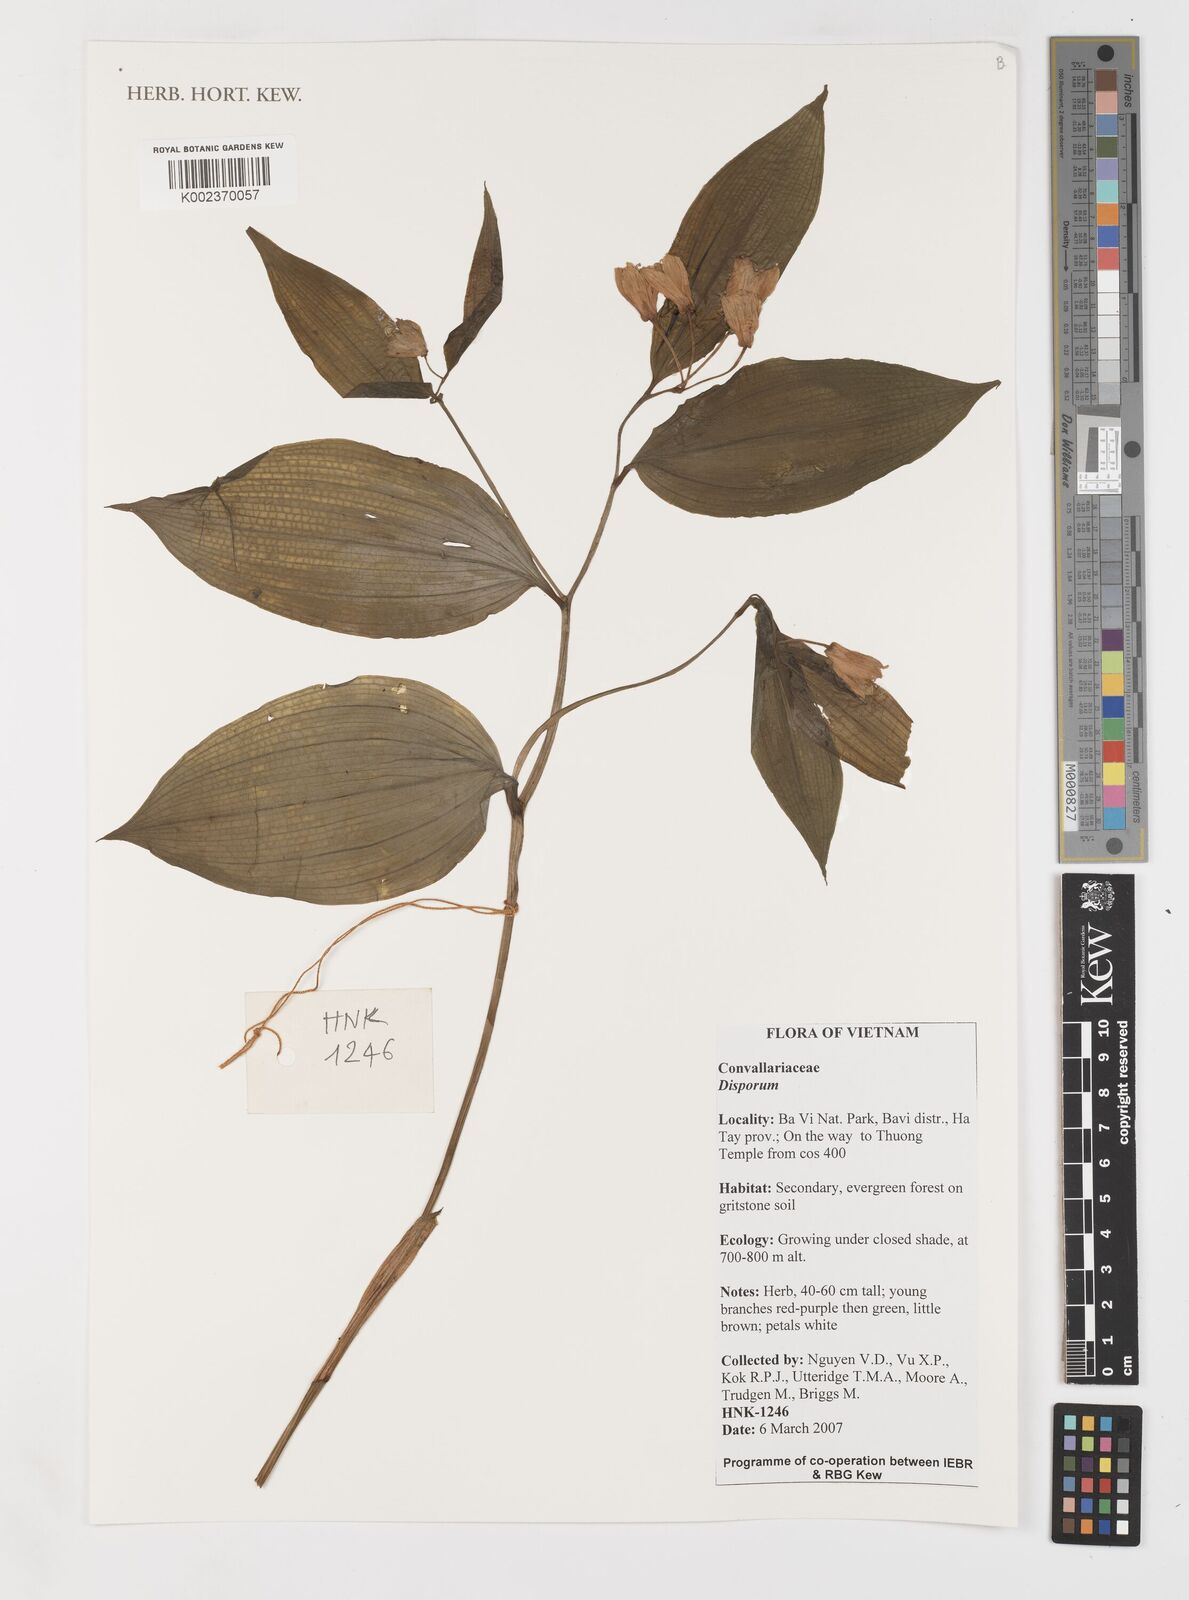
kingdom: Plantae
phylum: Tracheophyta
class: Liliopsida
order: Liliales
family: Colchicaceae
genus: Disporum
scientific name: Disporum
